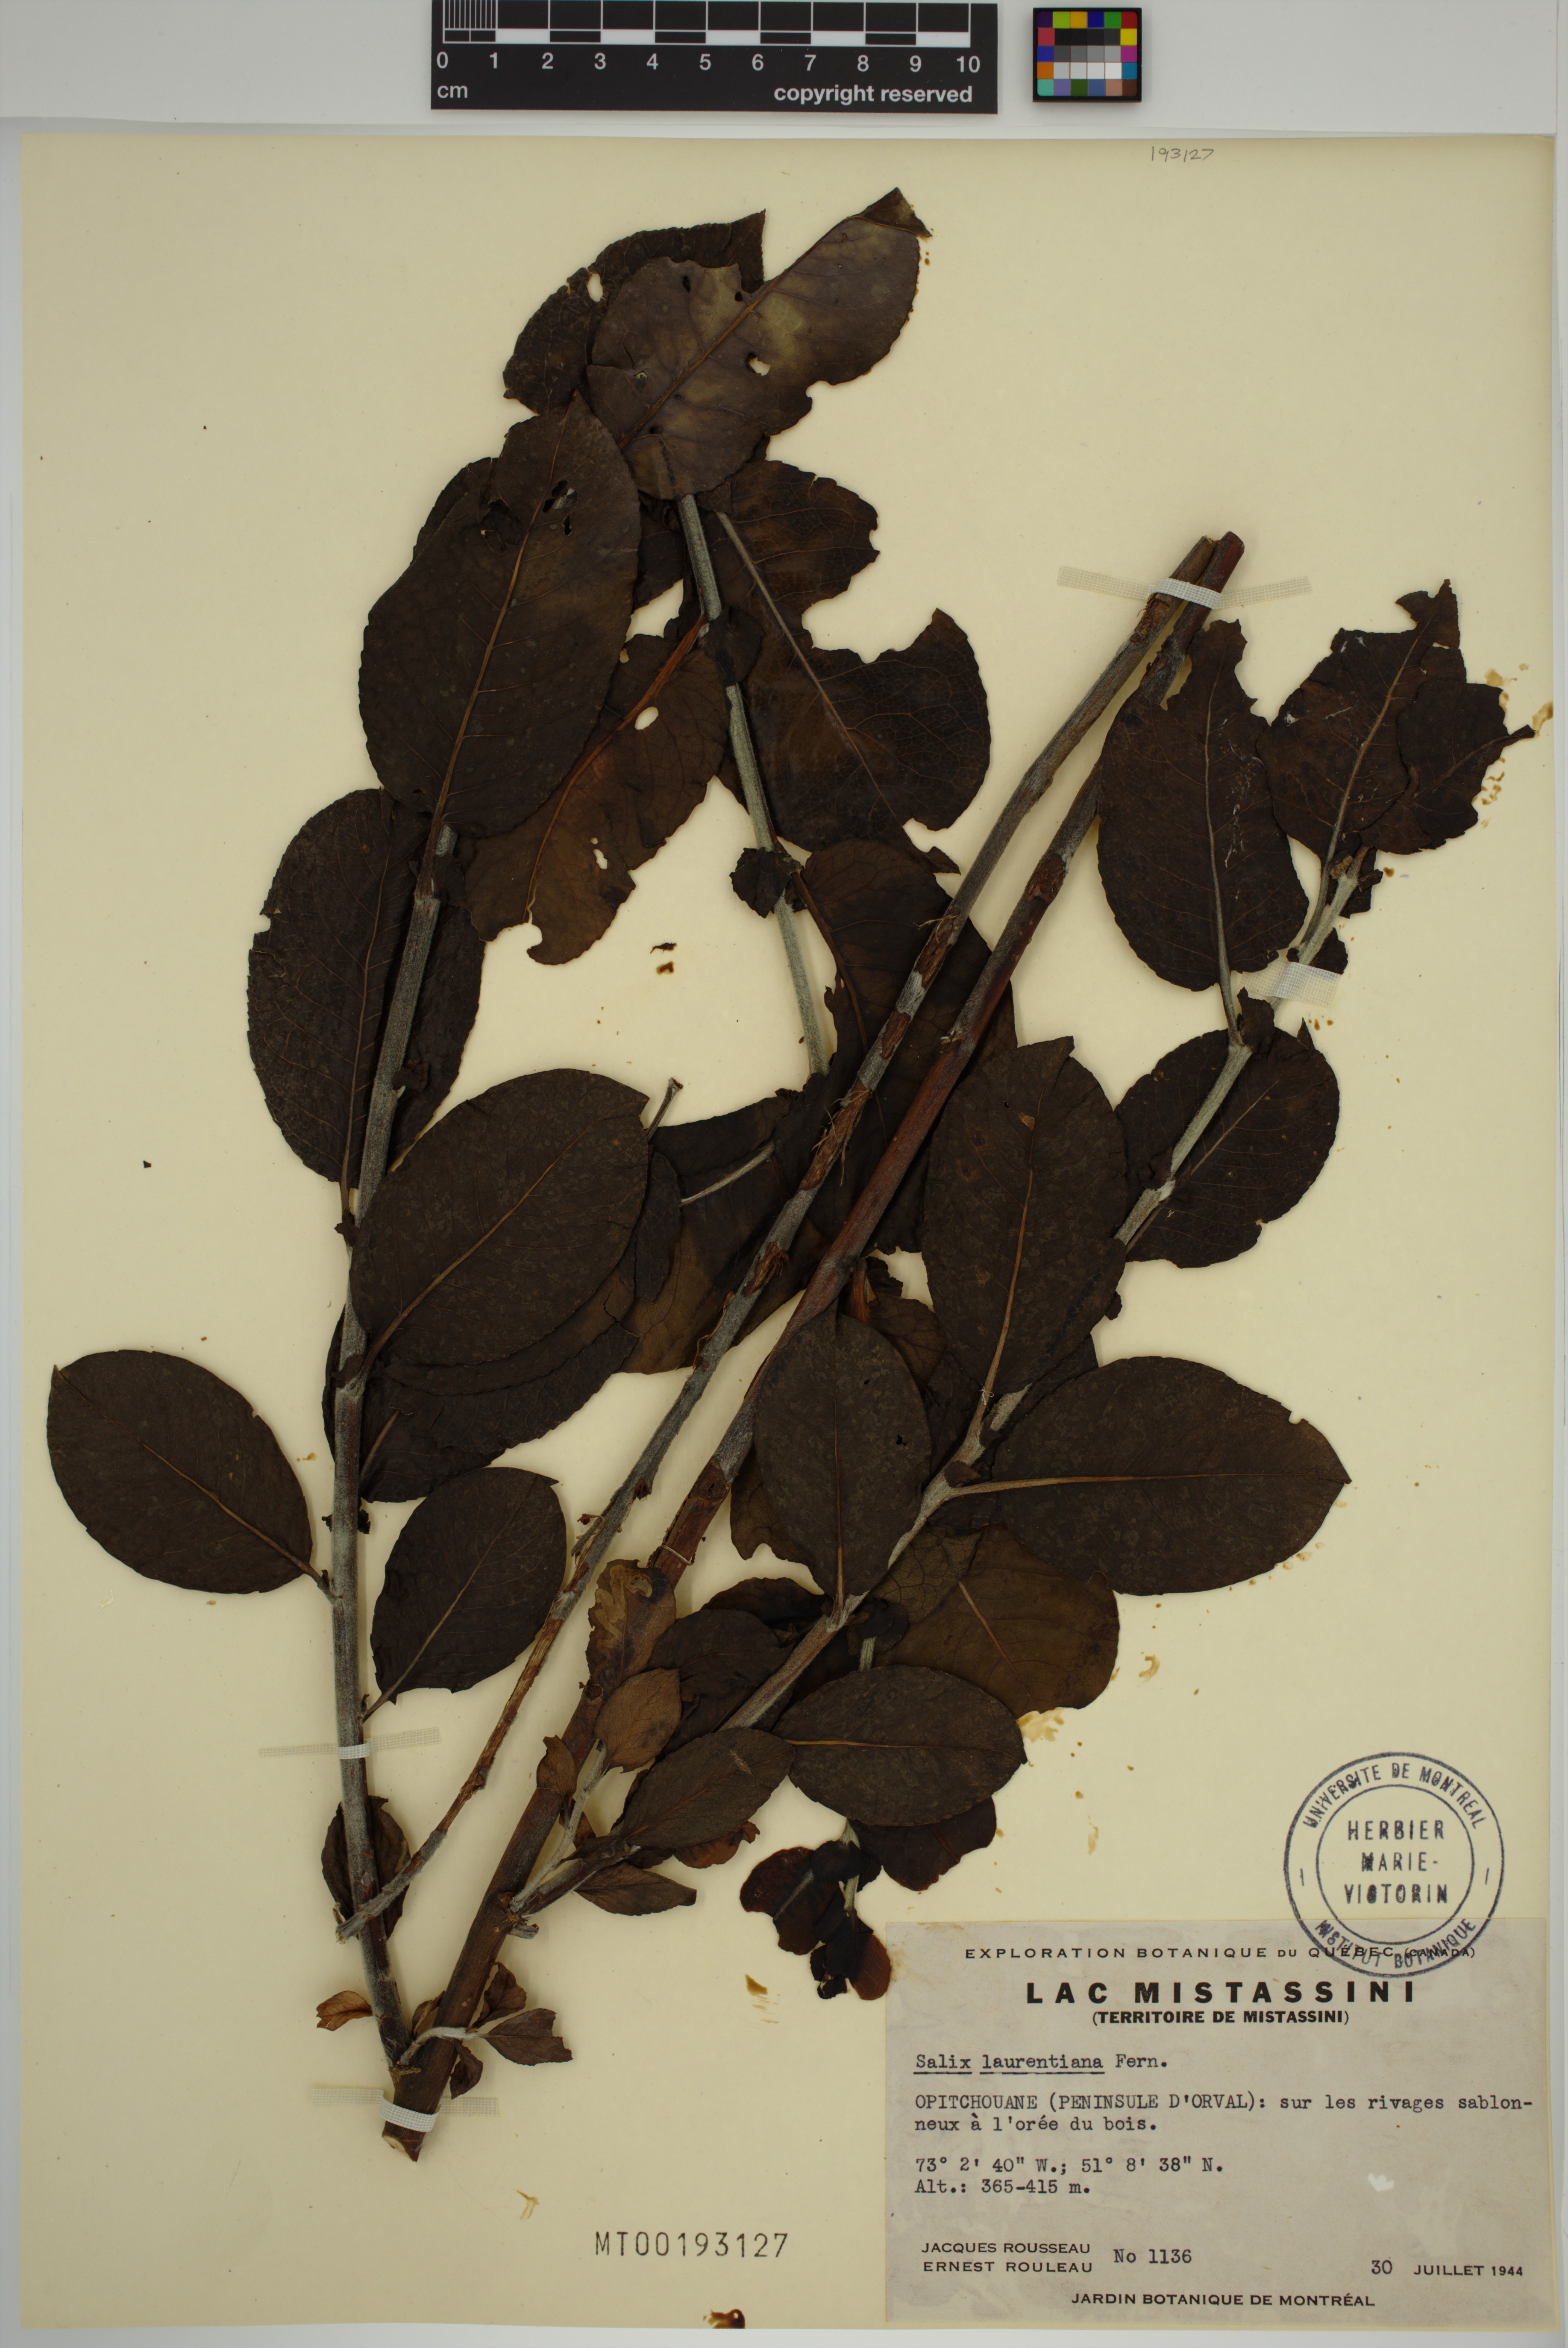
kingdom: Plantae
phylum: Tracheophyta
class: Magnoliopsida
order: Malpighiales
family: Salicaceae
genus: Salix
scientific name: Salix laurentiana
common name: Gulf of st. lawrence willow
